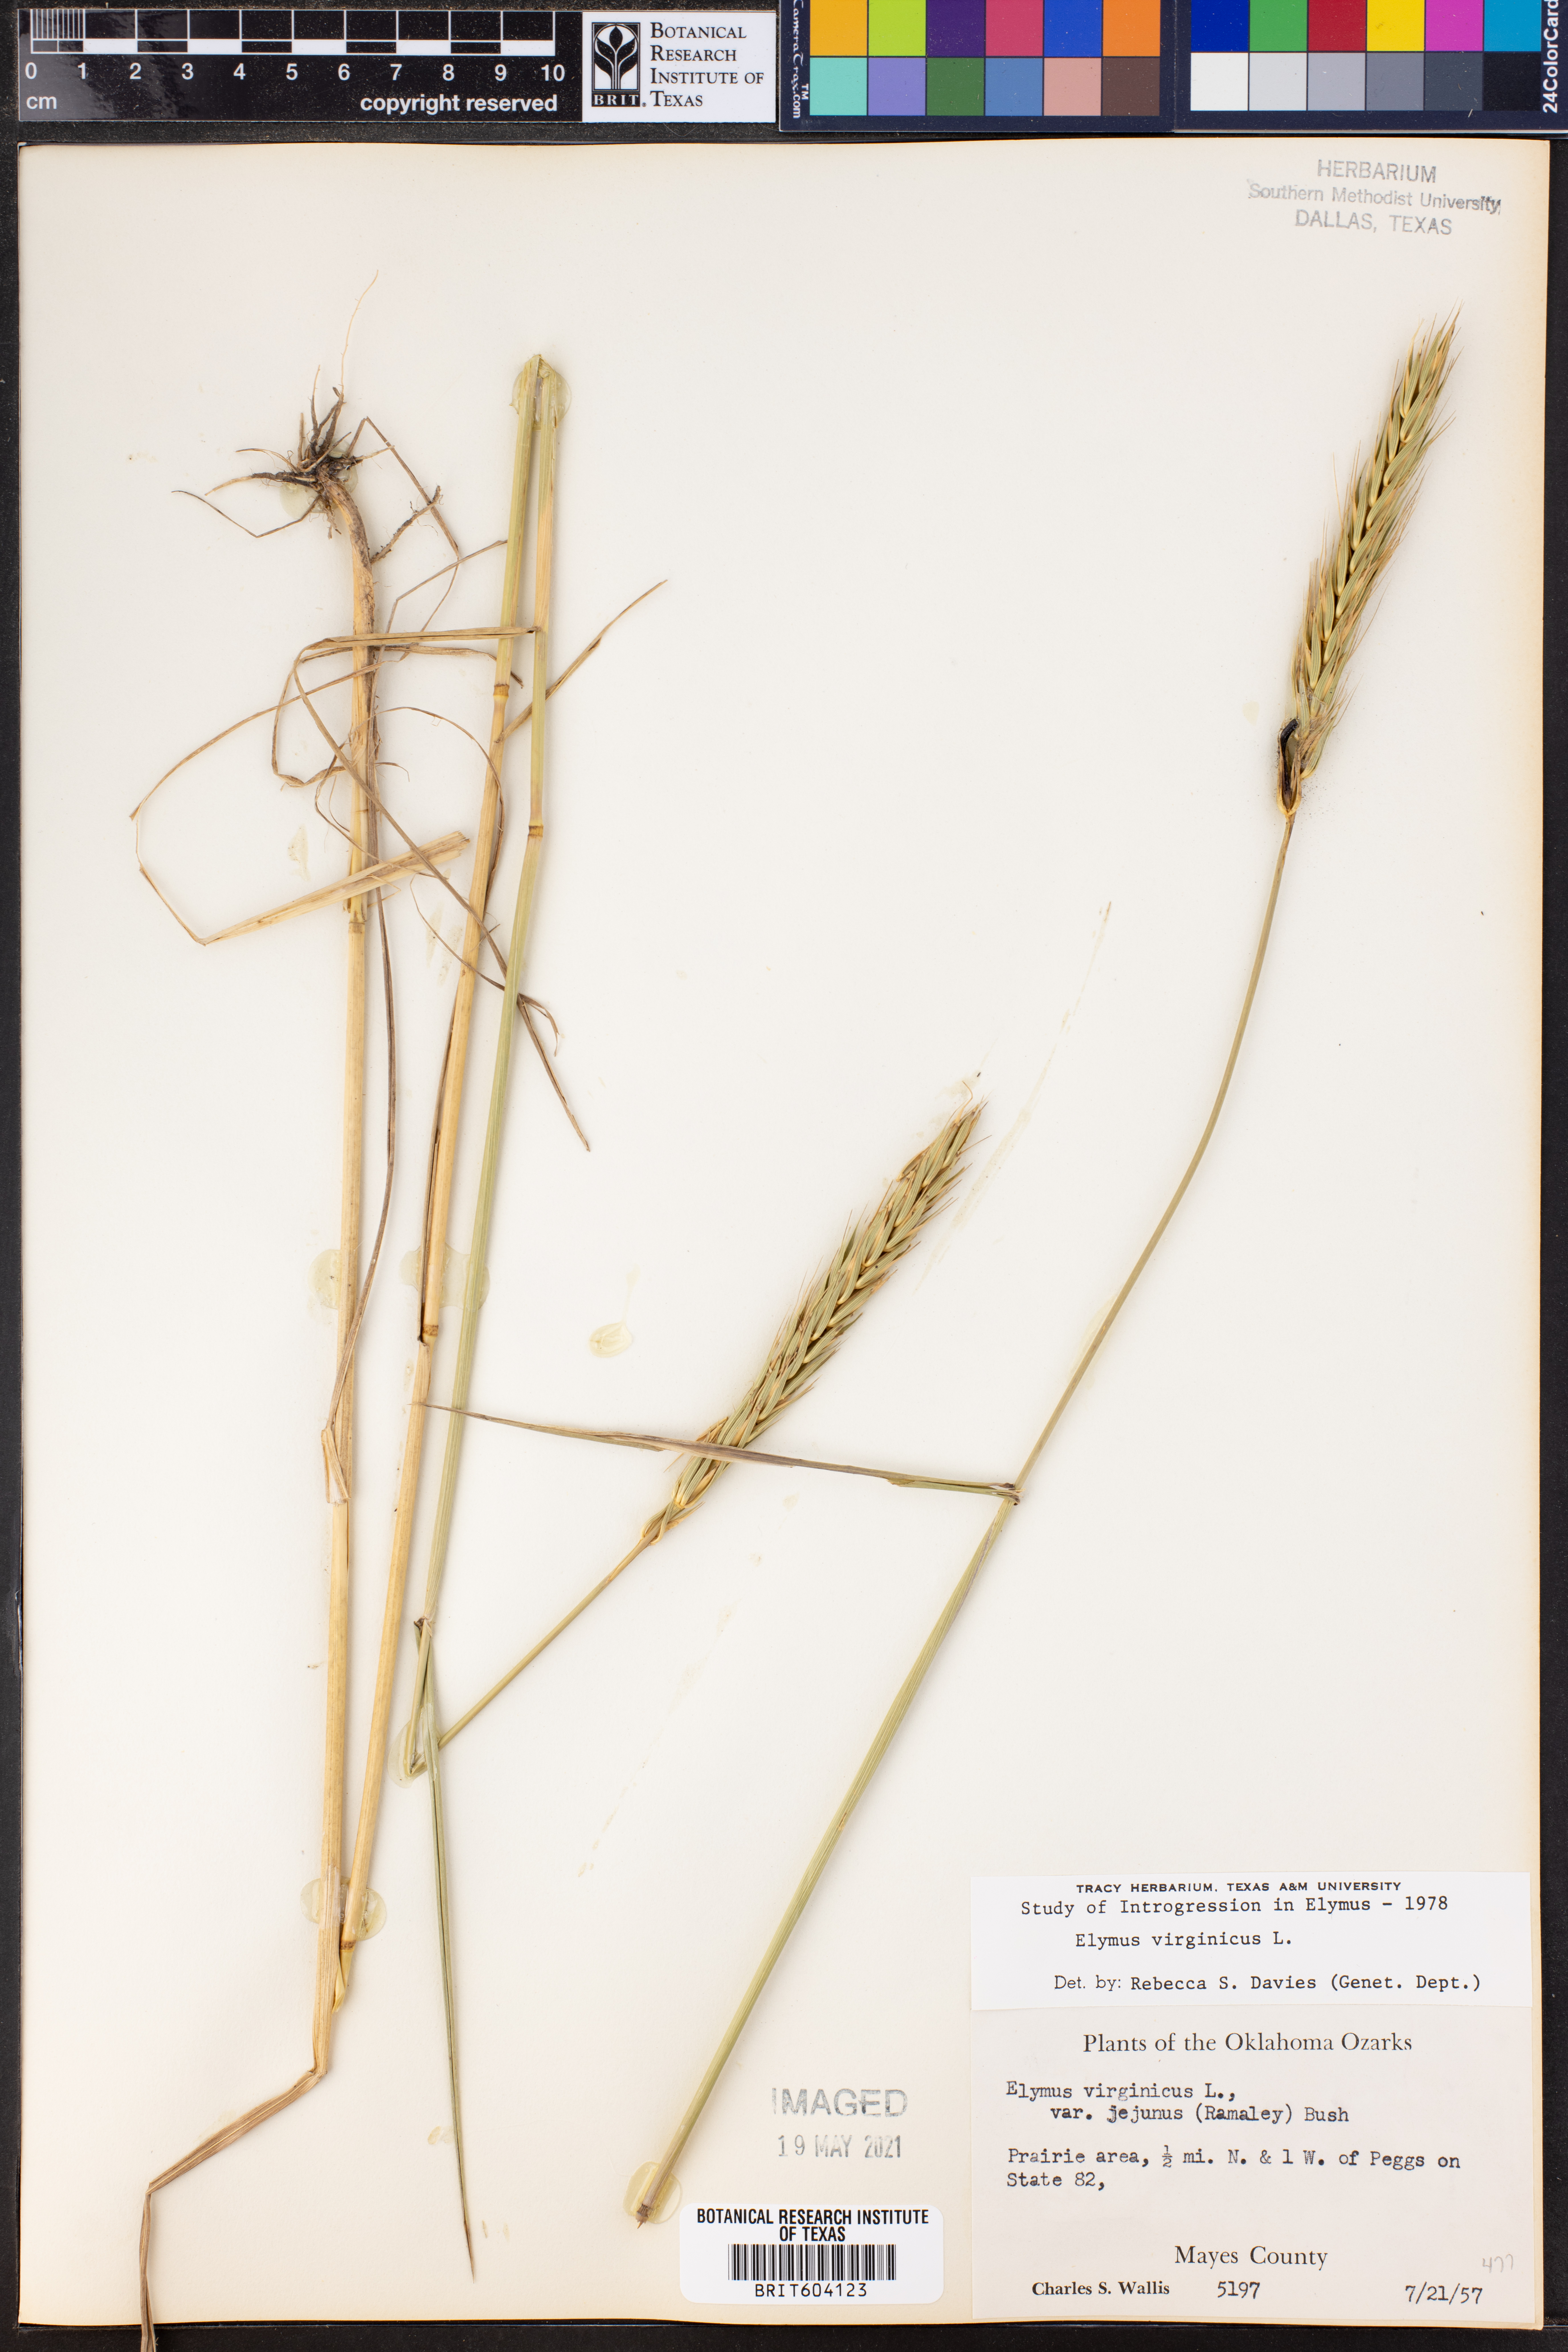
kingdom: Plantae
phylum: Tracheophyta
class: Liliopsida
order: Poales
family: Poaceae
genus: Elymus
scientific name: Elymus virginicus
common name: Common eastern wildrye
